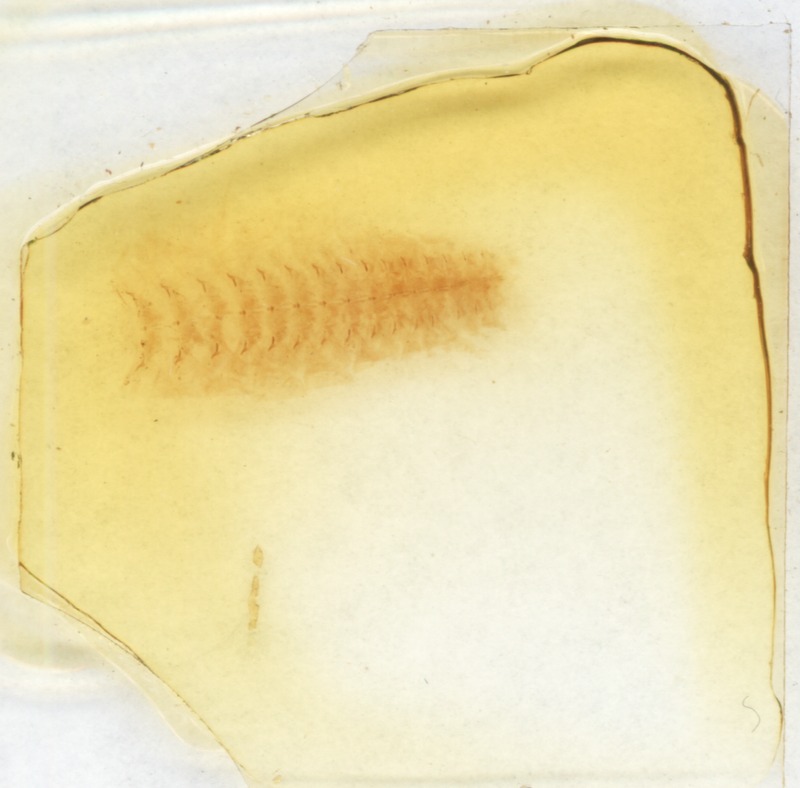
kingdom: Animalia
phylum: Arthropoda
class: Diplopoda
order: Glomerida
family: Glomeridae
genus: Glomeris
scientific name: Glomeris guttata
